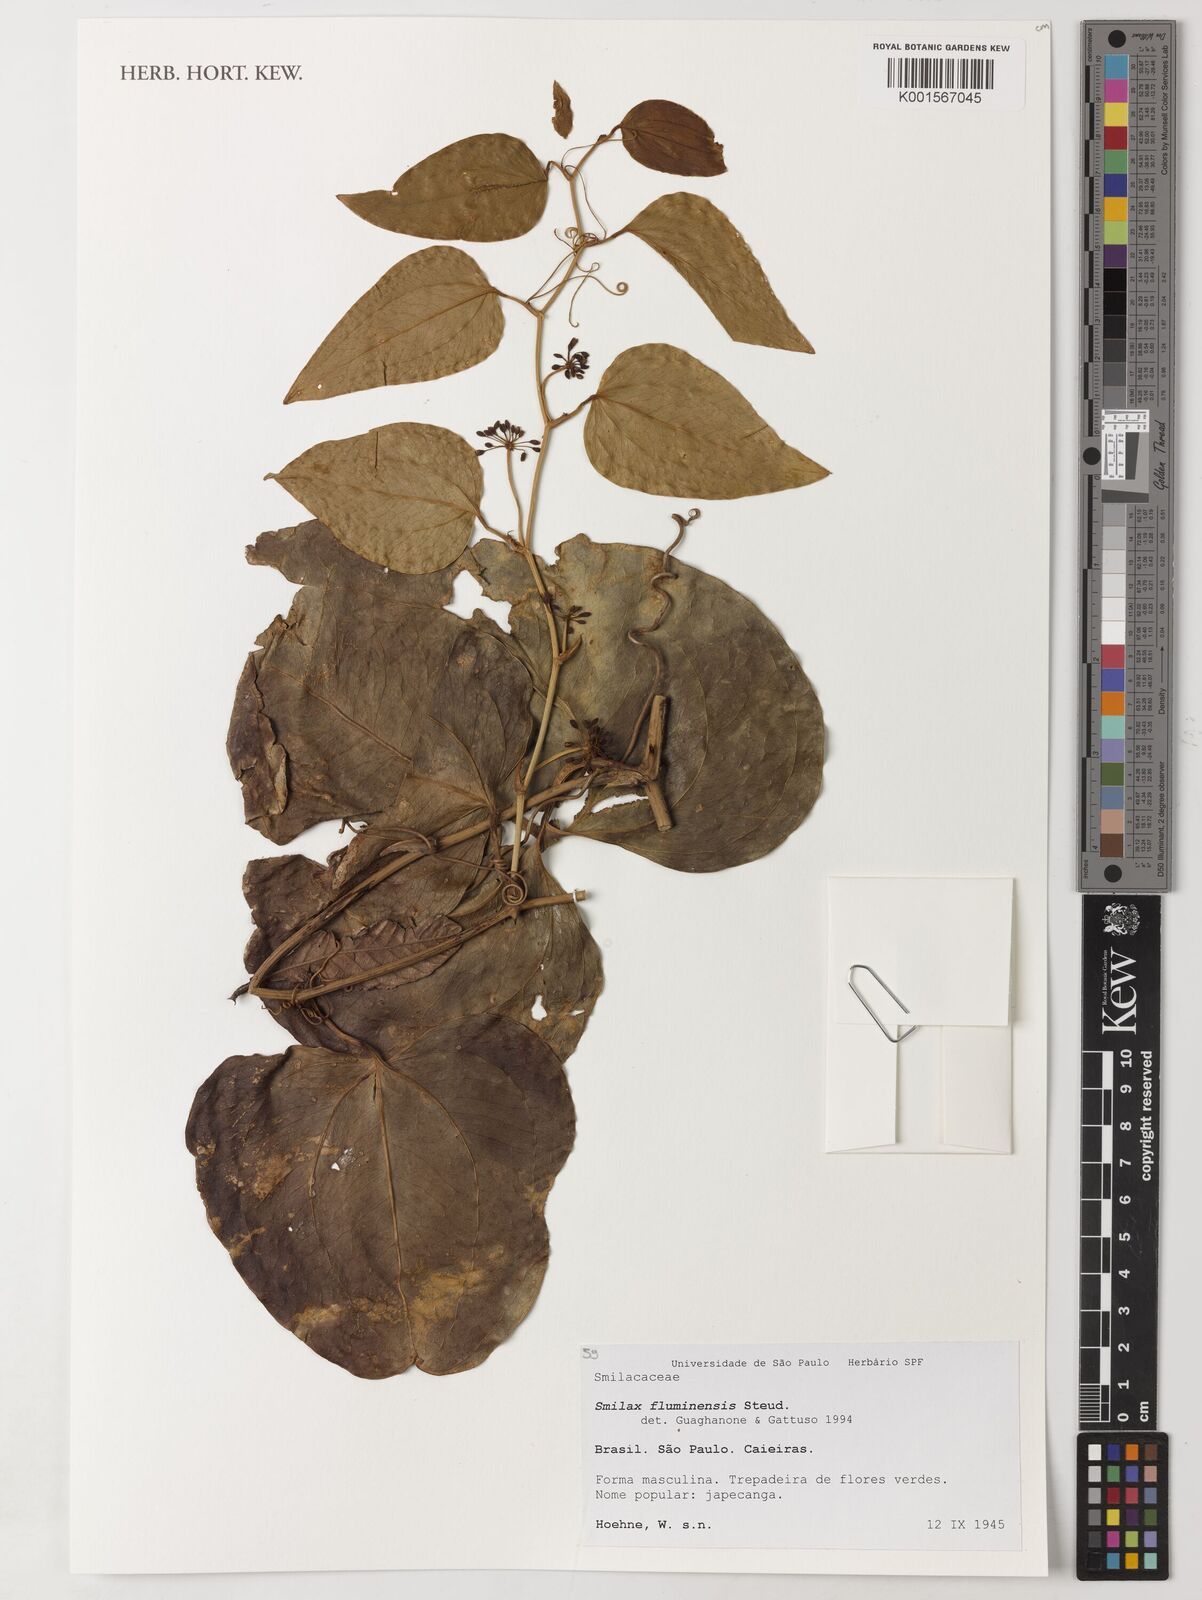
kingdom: Plantae
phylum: Tracheophyta
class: Liliopsida
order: Liliales
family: Smilacaceae
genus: Smilax
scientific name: Smilax fluminensis
